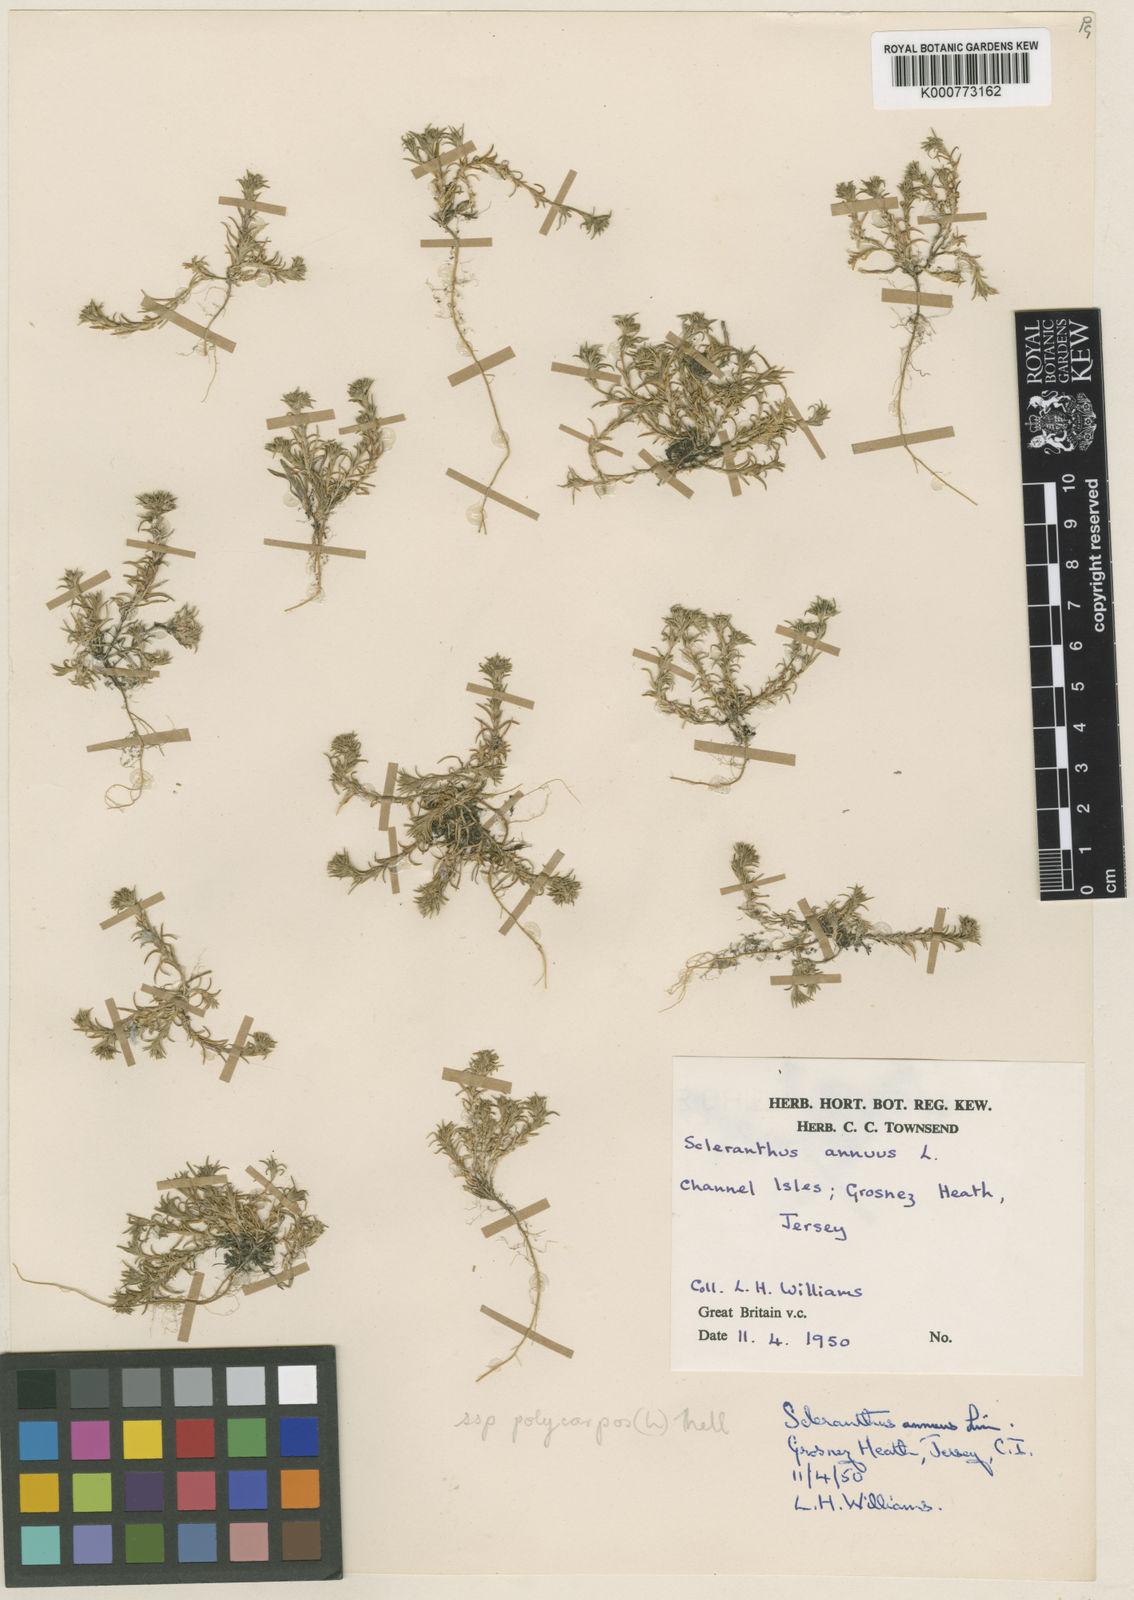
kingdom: Plantae
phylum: Tracheophyta
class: Magnoliopsida
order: Caryophyllales
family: Caryophyllaceae
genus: Scleranthus
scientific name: Scleranthus annuus
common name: Annual knawel
